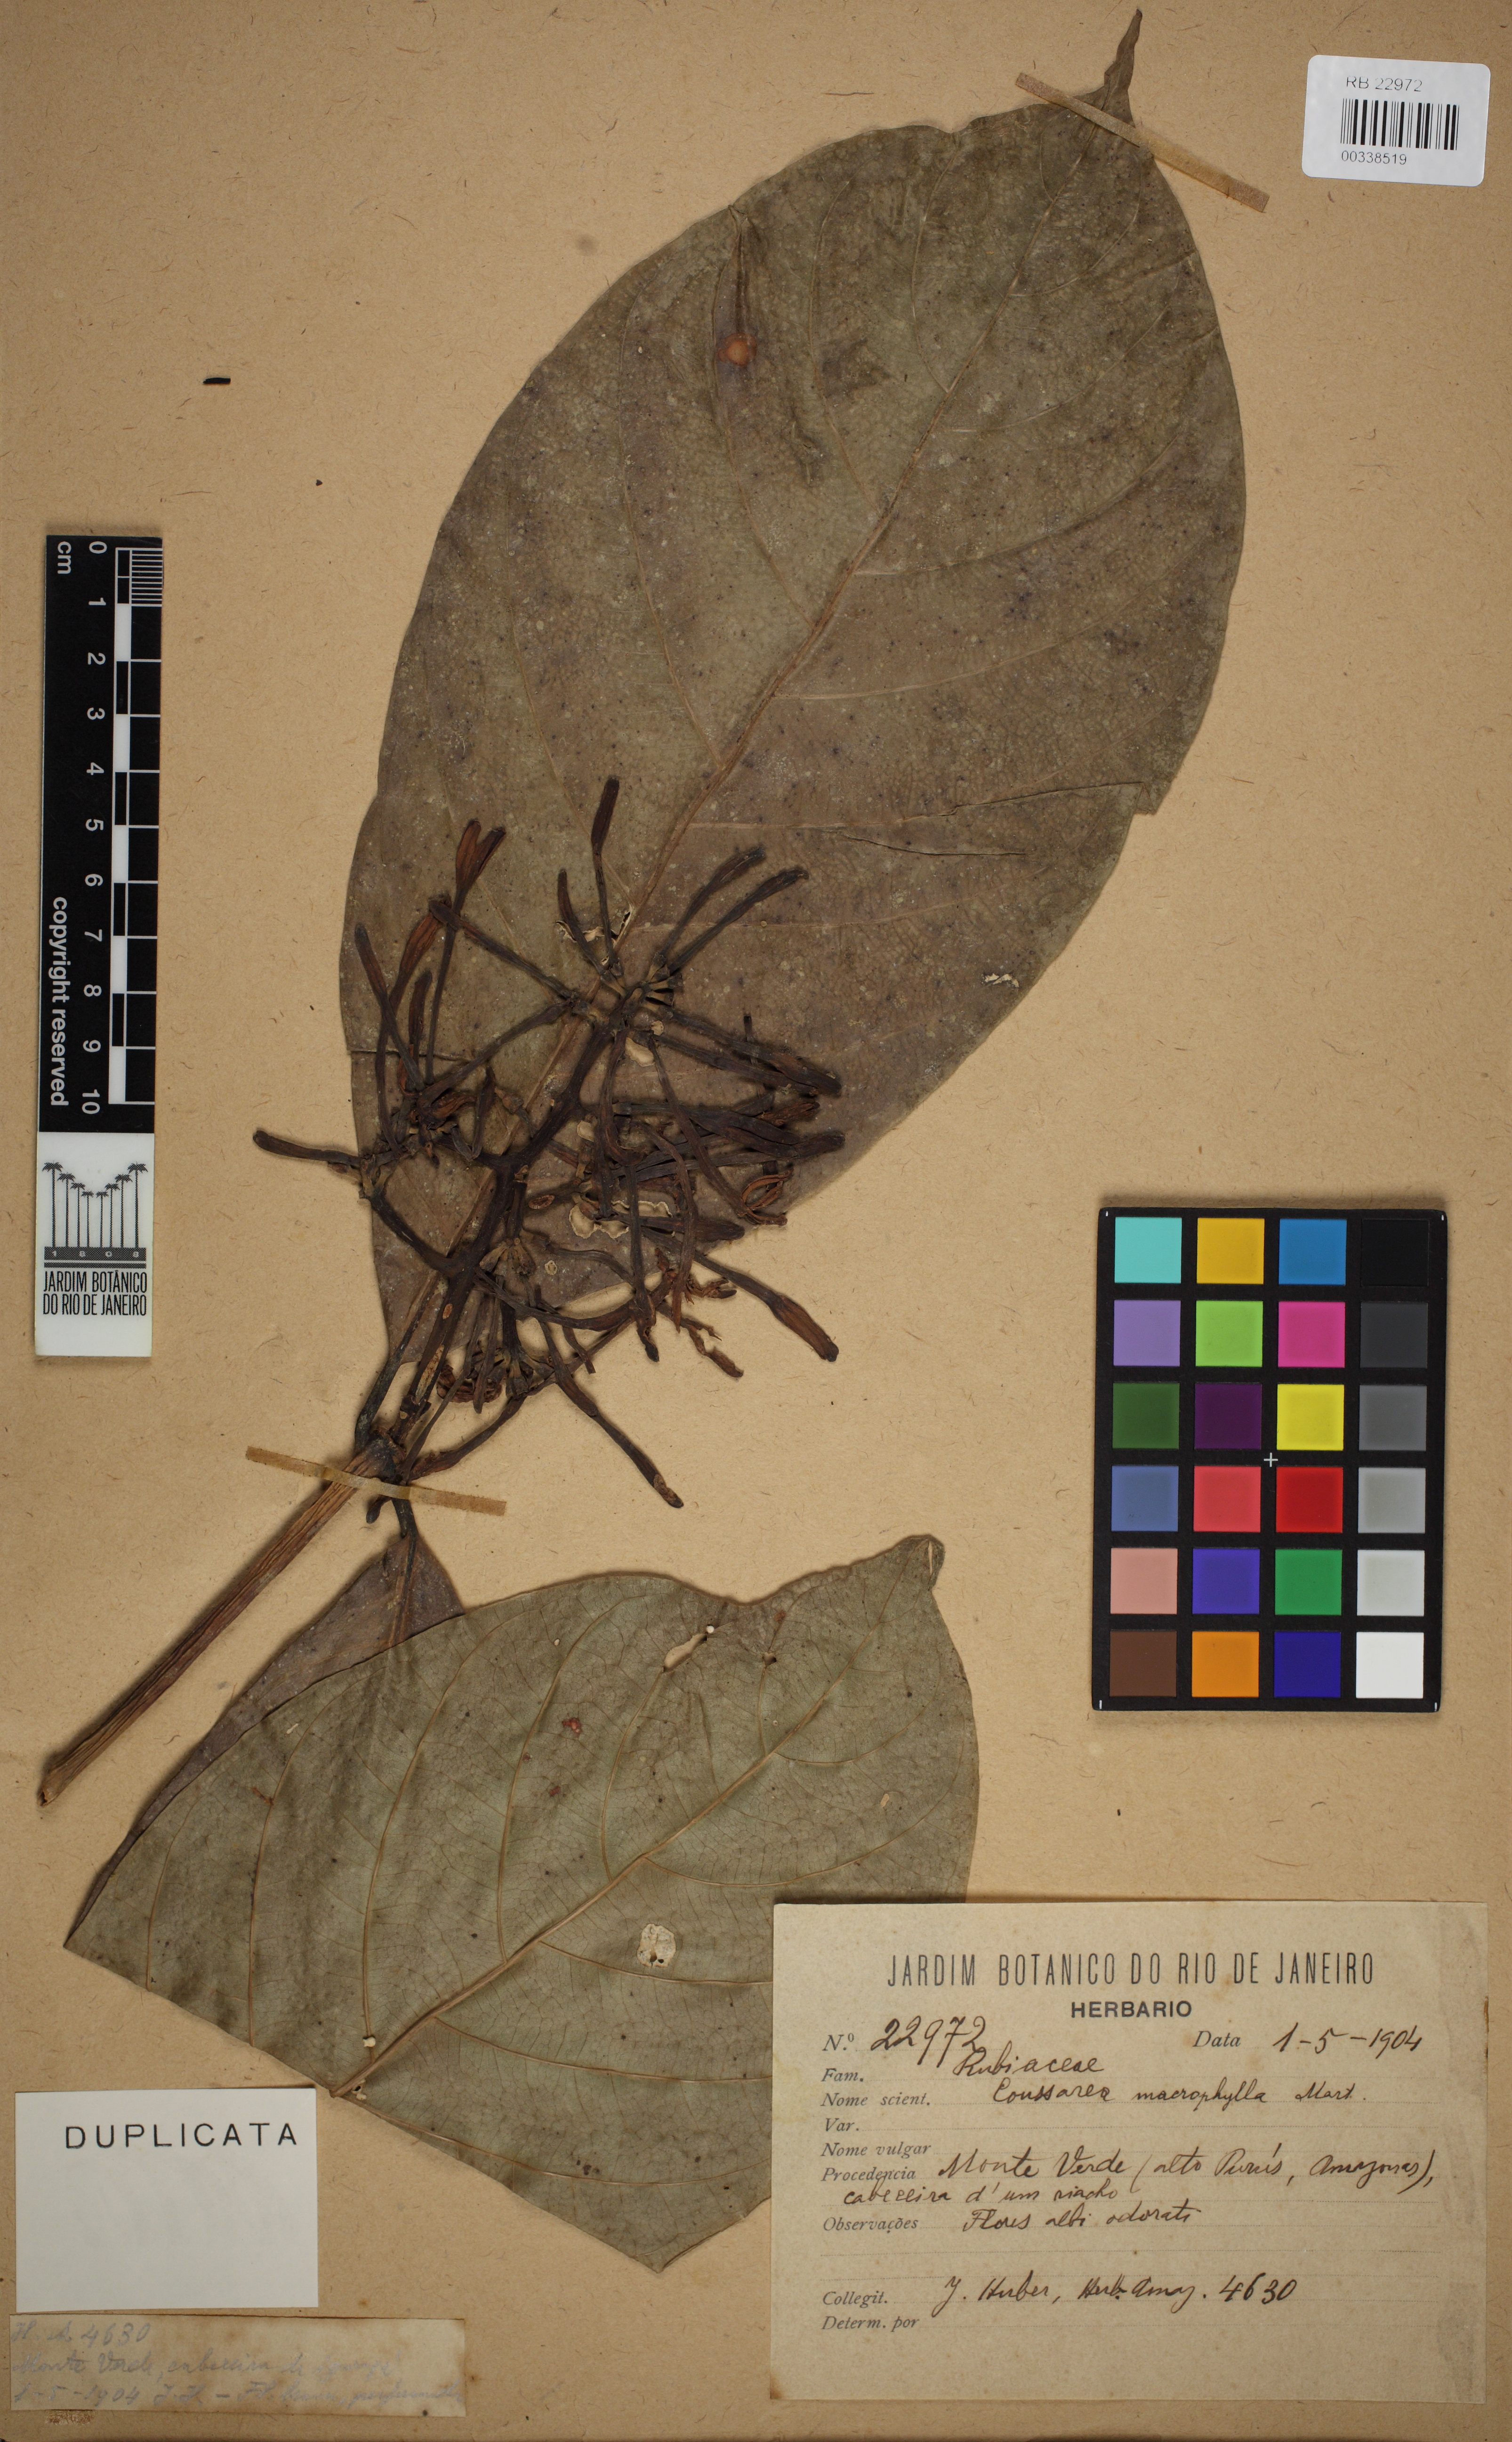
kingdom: Plantae
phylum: Tracheophyta
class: Magnoliopsida
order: Gentianales
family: Rubiaceae
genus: Coussarea
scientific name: Coussarea macrophylla
